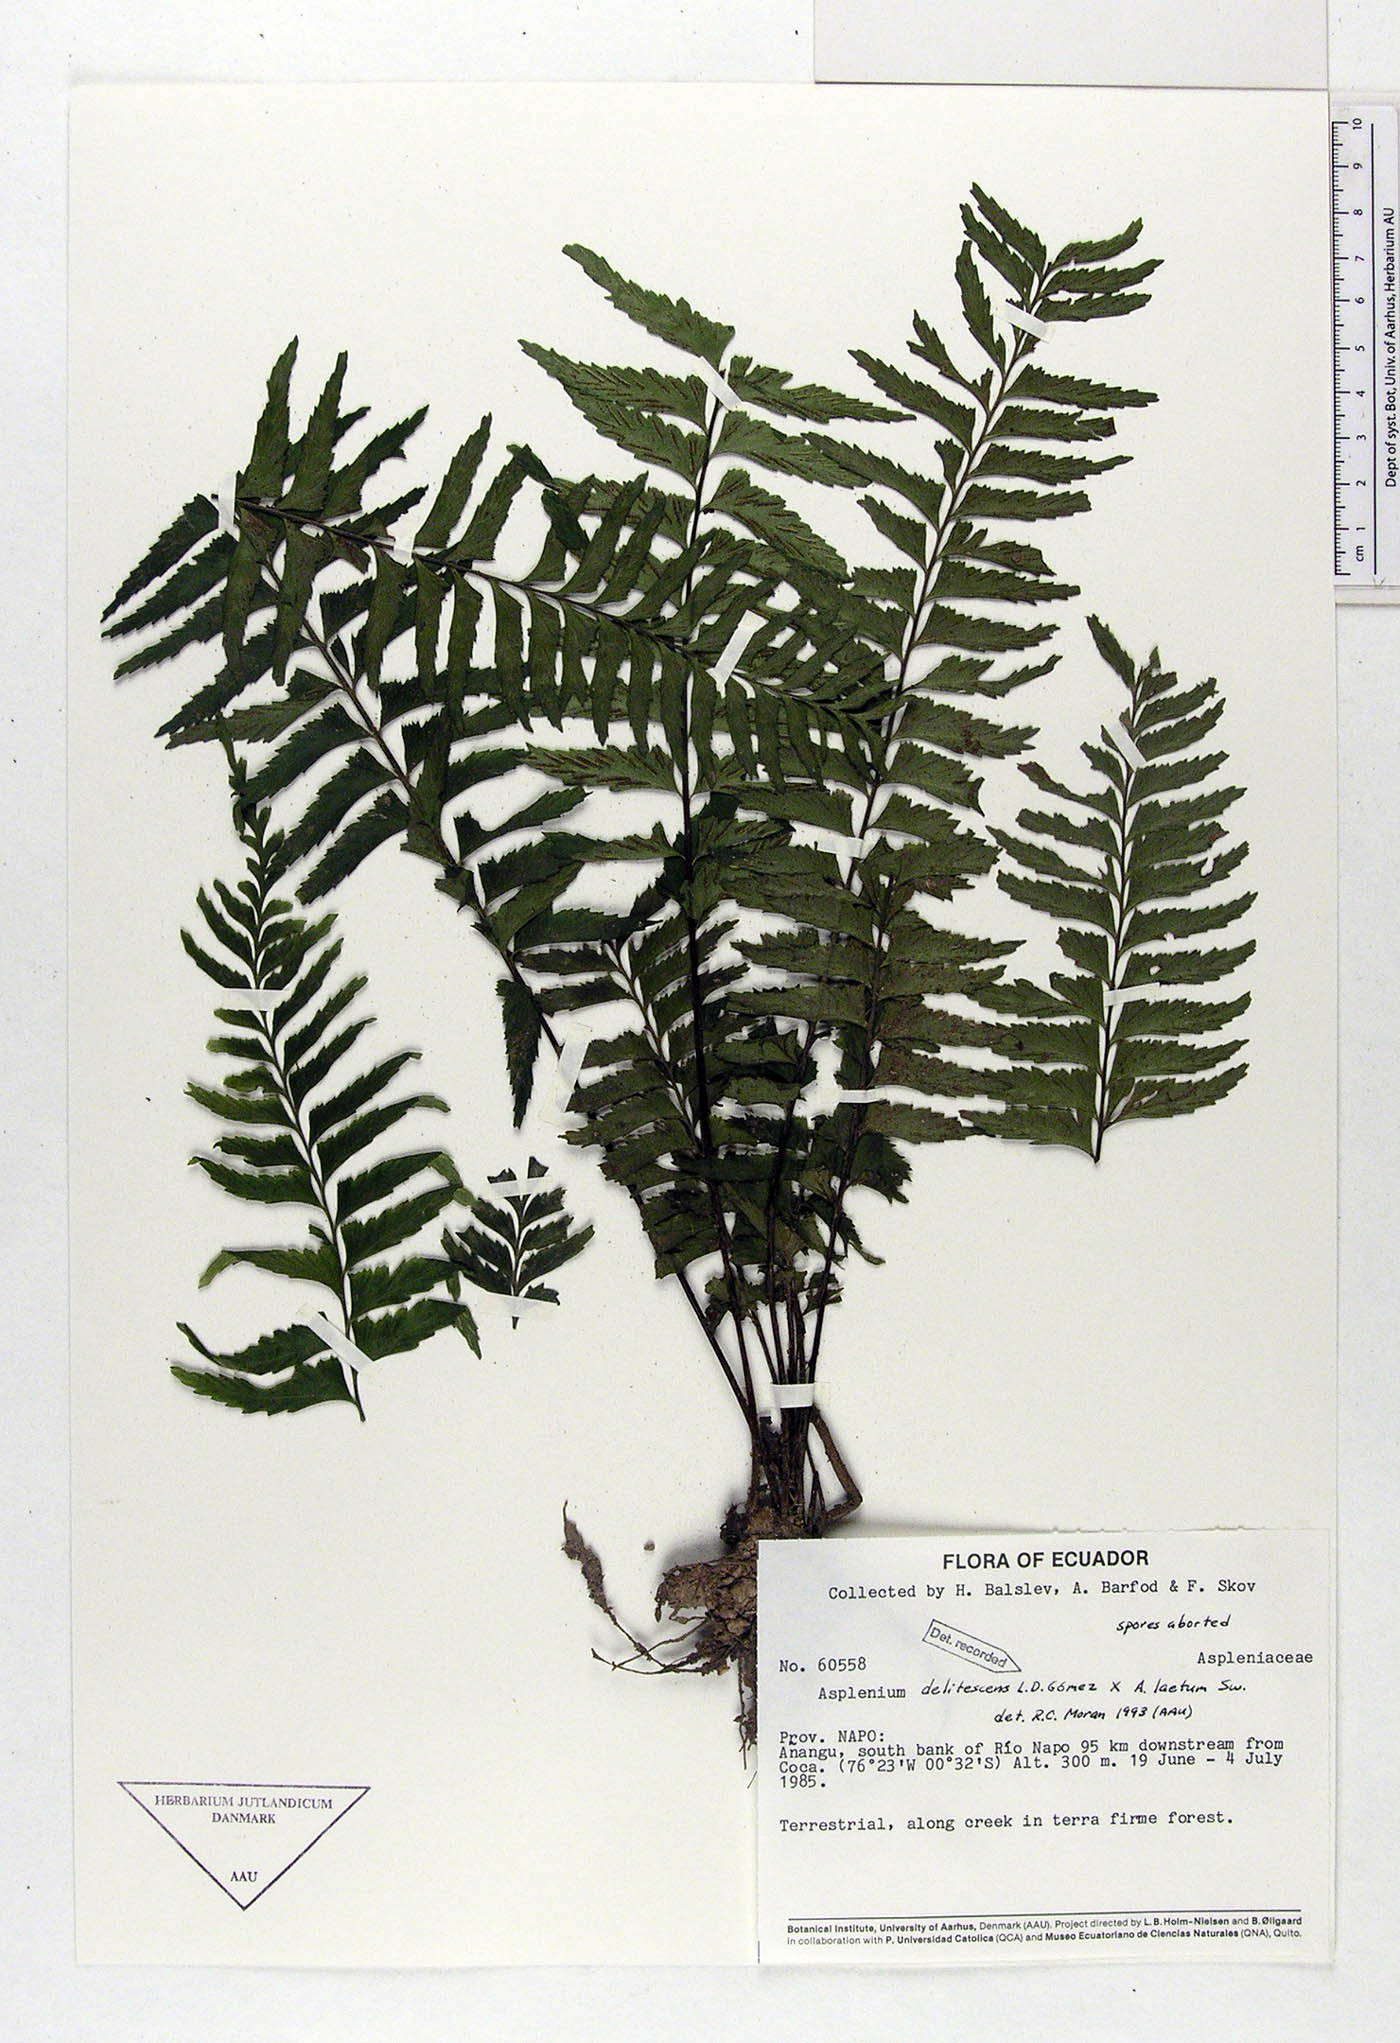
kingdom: Plantae
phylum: Tracheophyta
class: Polypodiopsida
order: Polypodiales
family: Aspleniaceae
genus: Hymenasplenium
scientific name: Hymenasplenium delitescens
